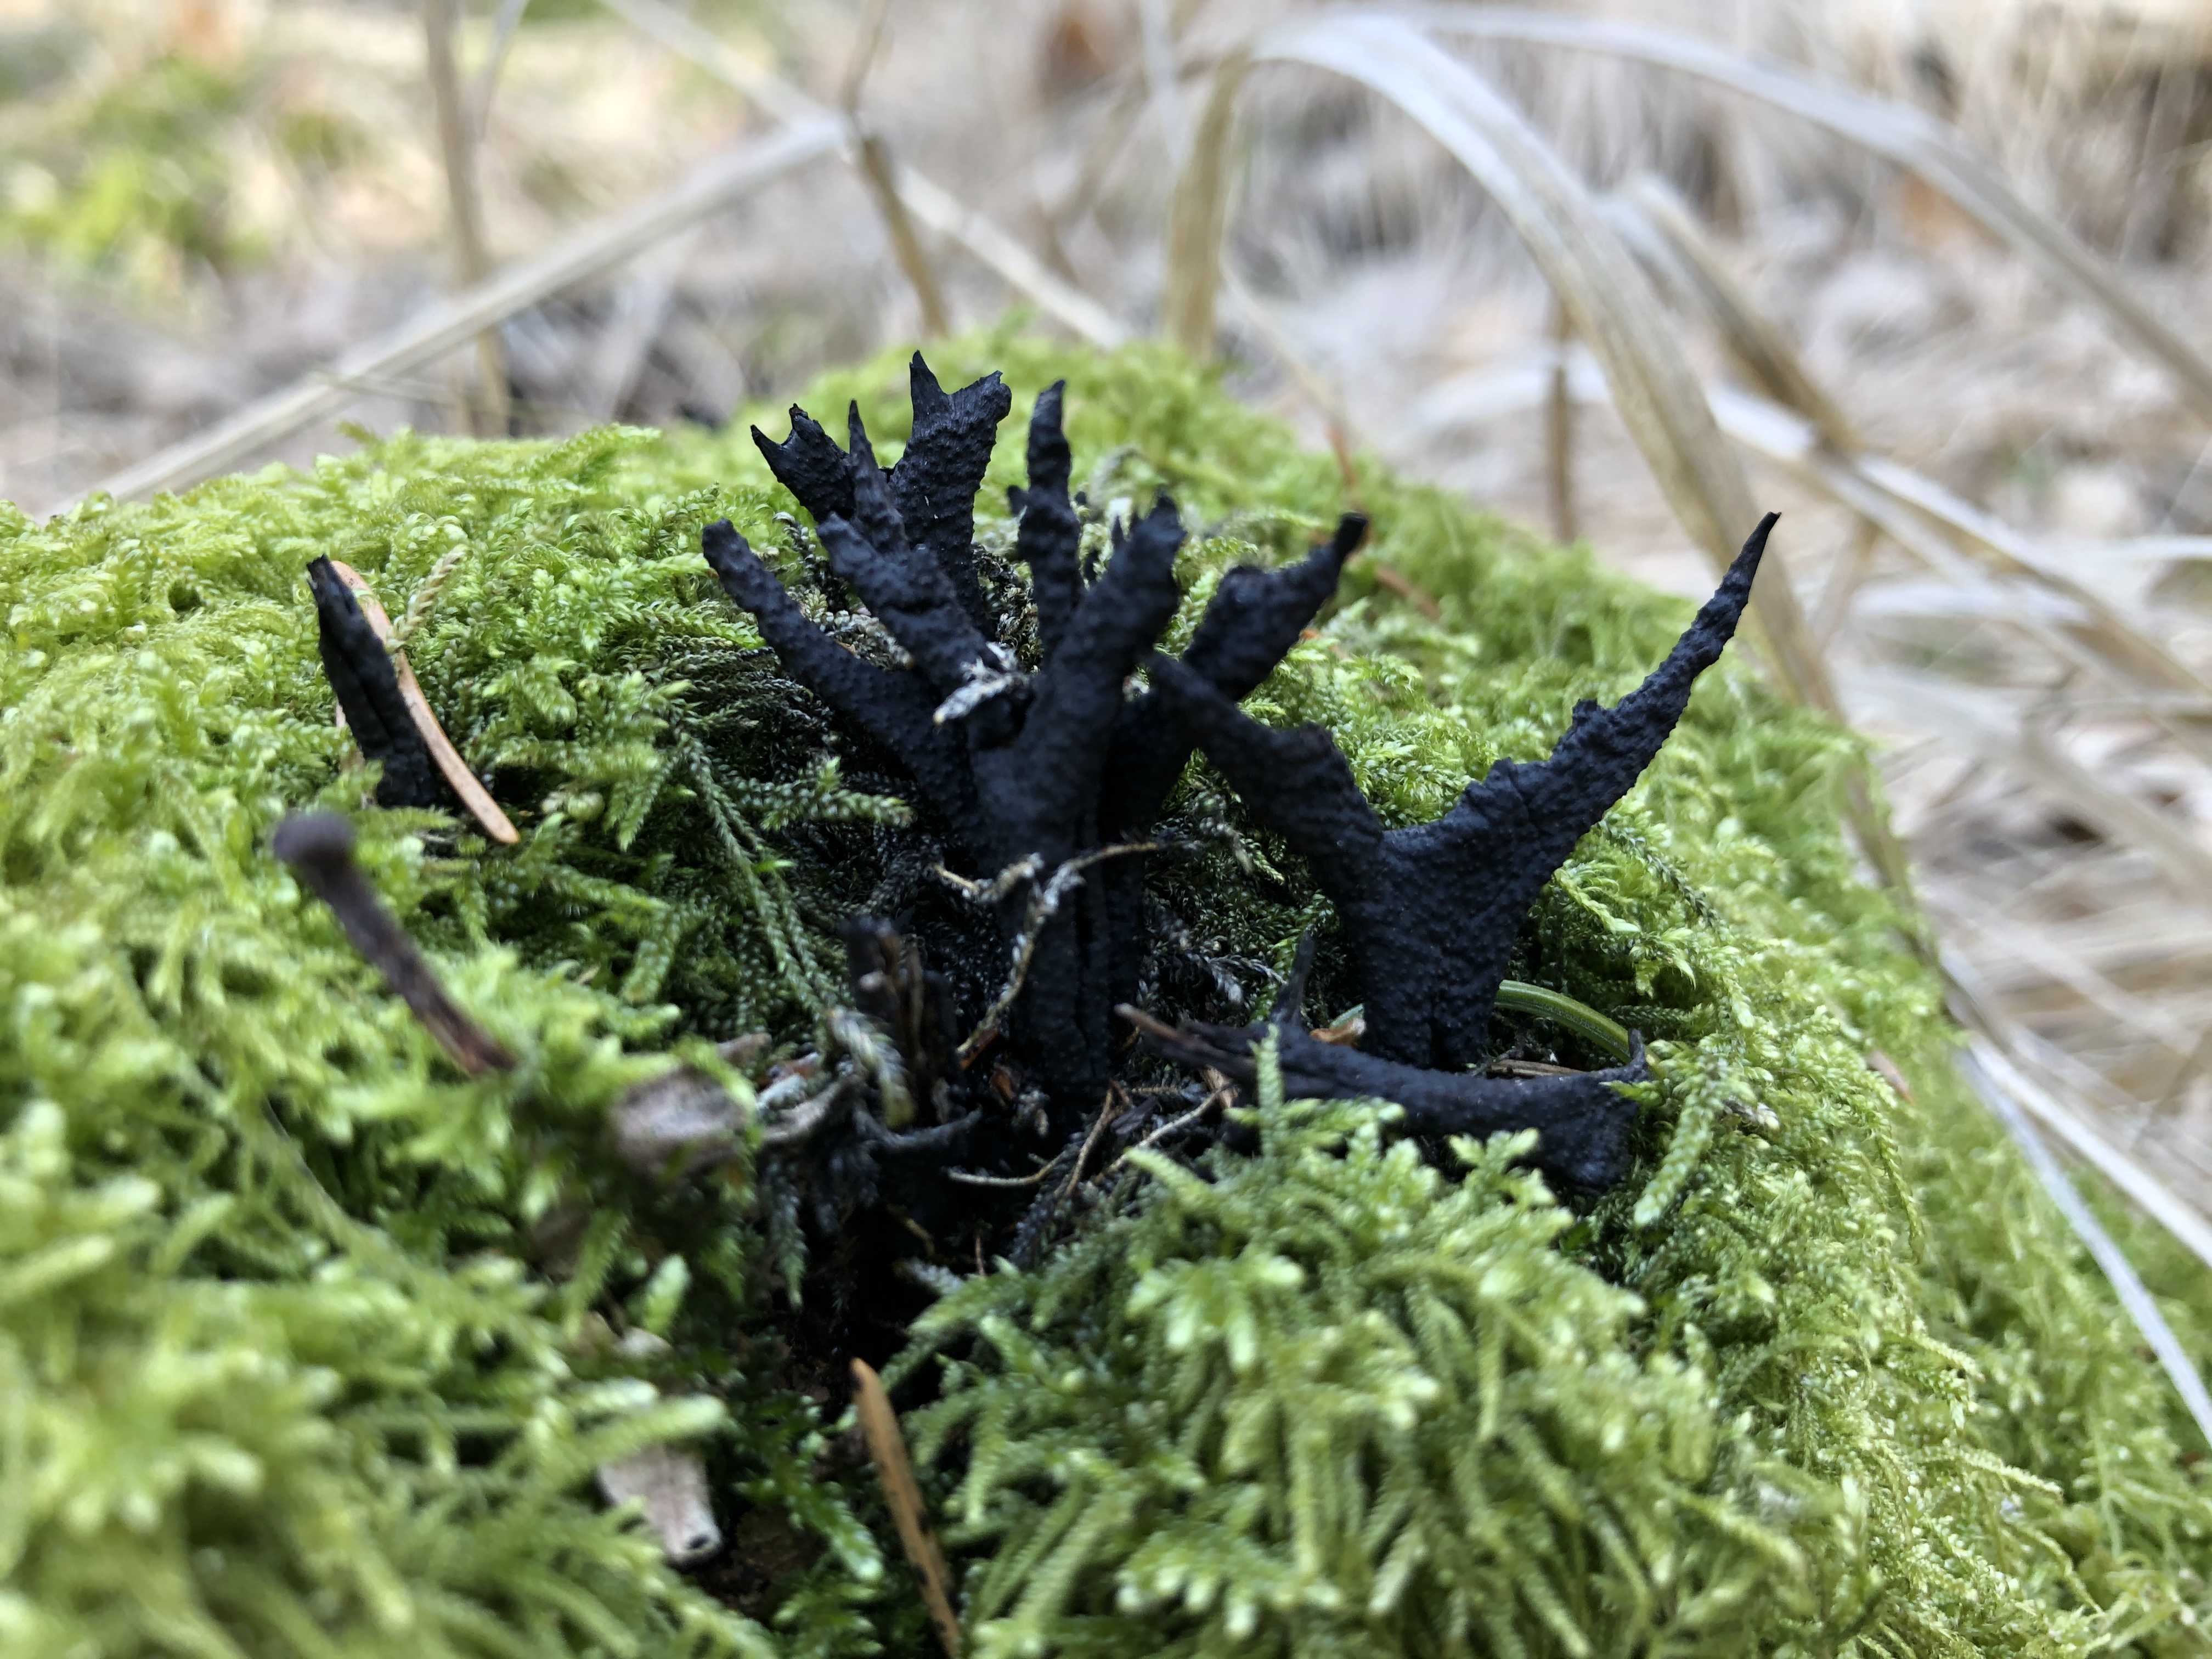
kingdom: Fungi
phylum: Ascomycota
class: Sordariomycetes
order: Xylariales
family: Xylariaceae
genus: Xylaria
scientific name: Xylaria hypoxylon
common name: grenet stødsvamp
